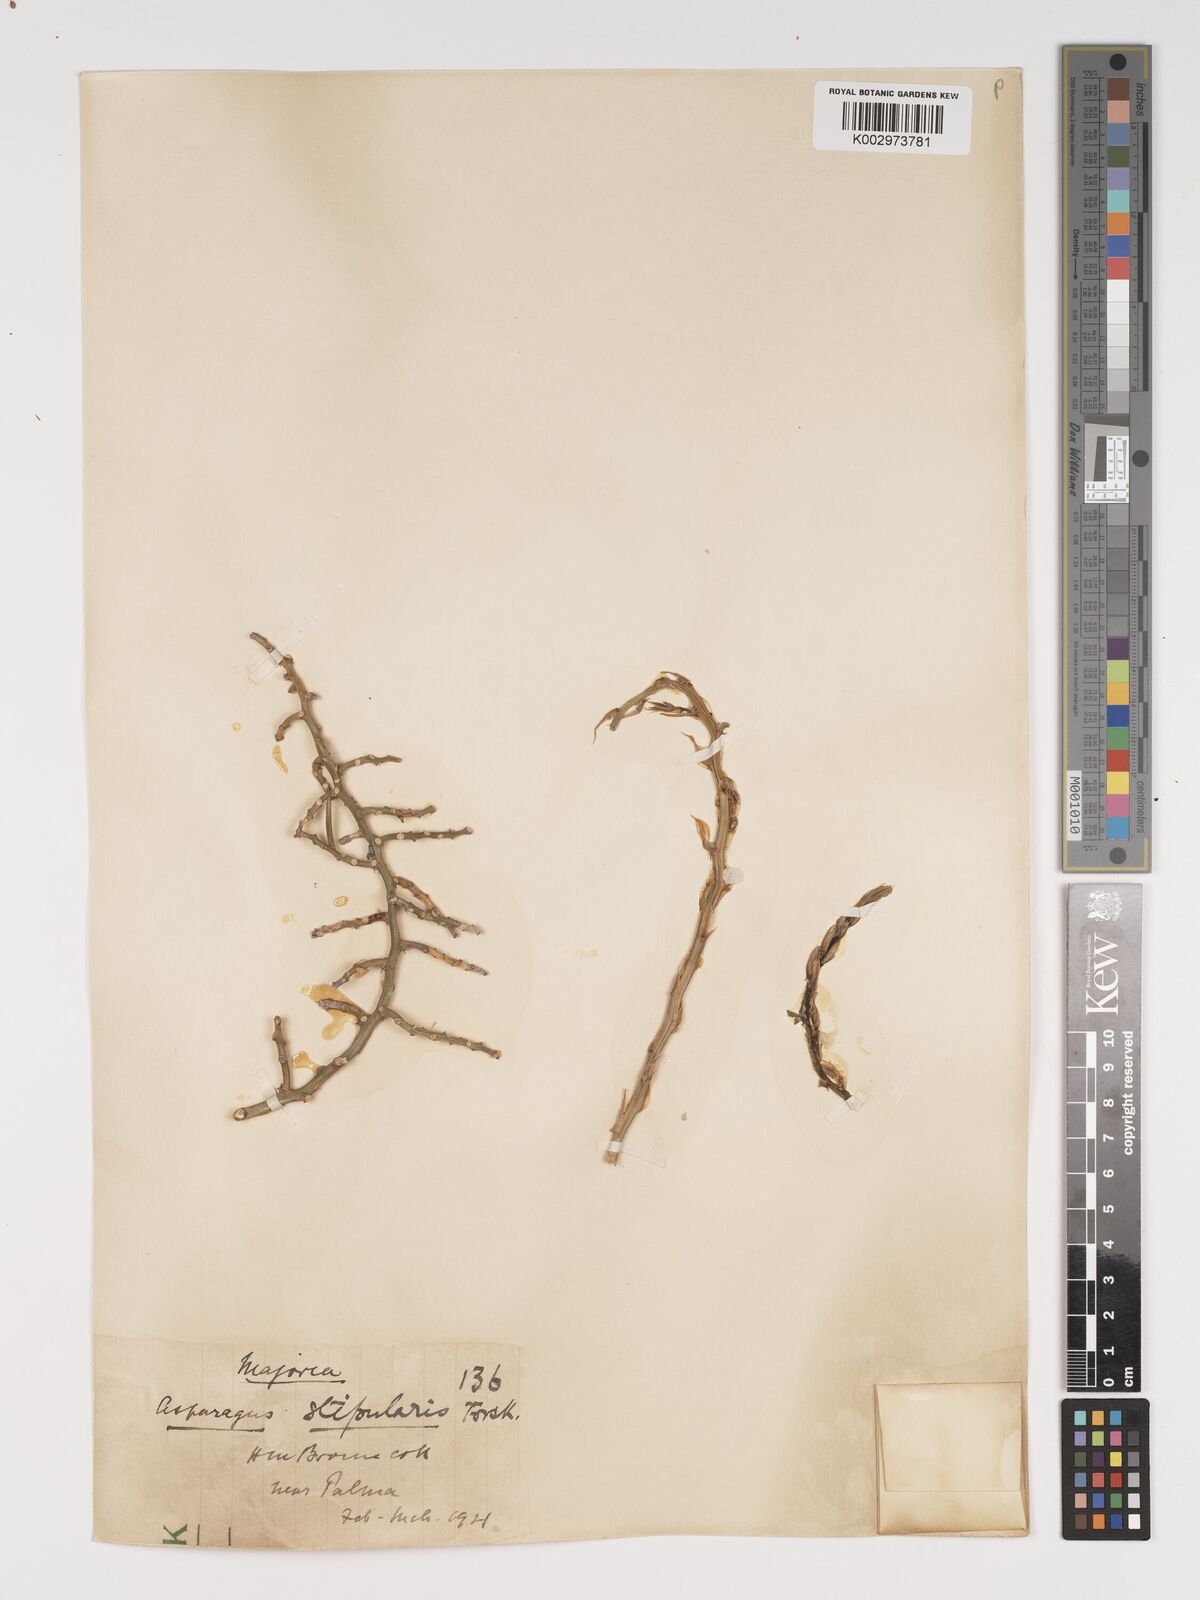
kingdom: Plantae
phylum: Tracheophyta
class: Liliopsida
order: Asparagales
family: Asparagaceae
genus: Asparagus
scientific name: Asparagus horridus
